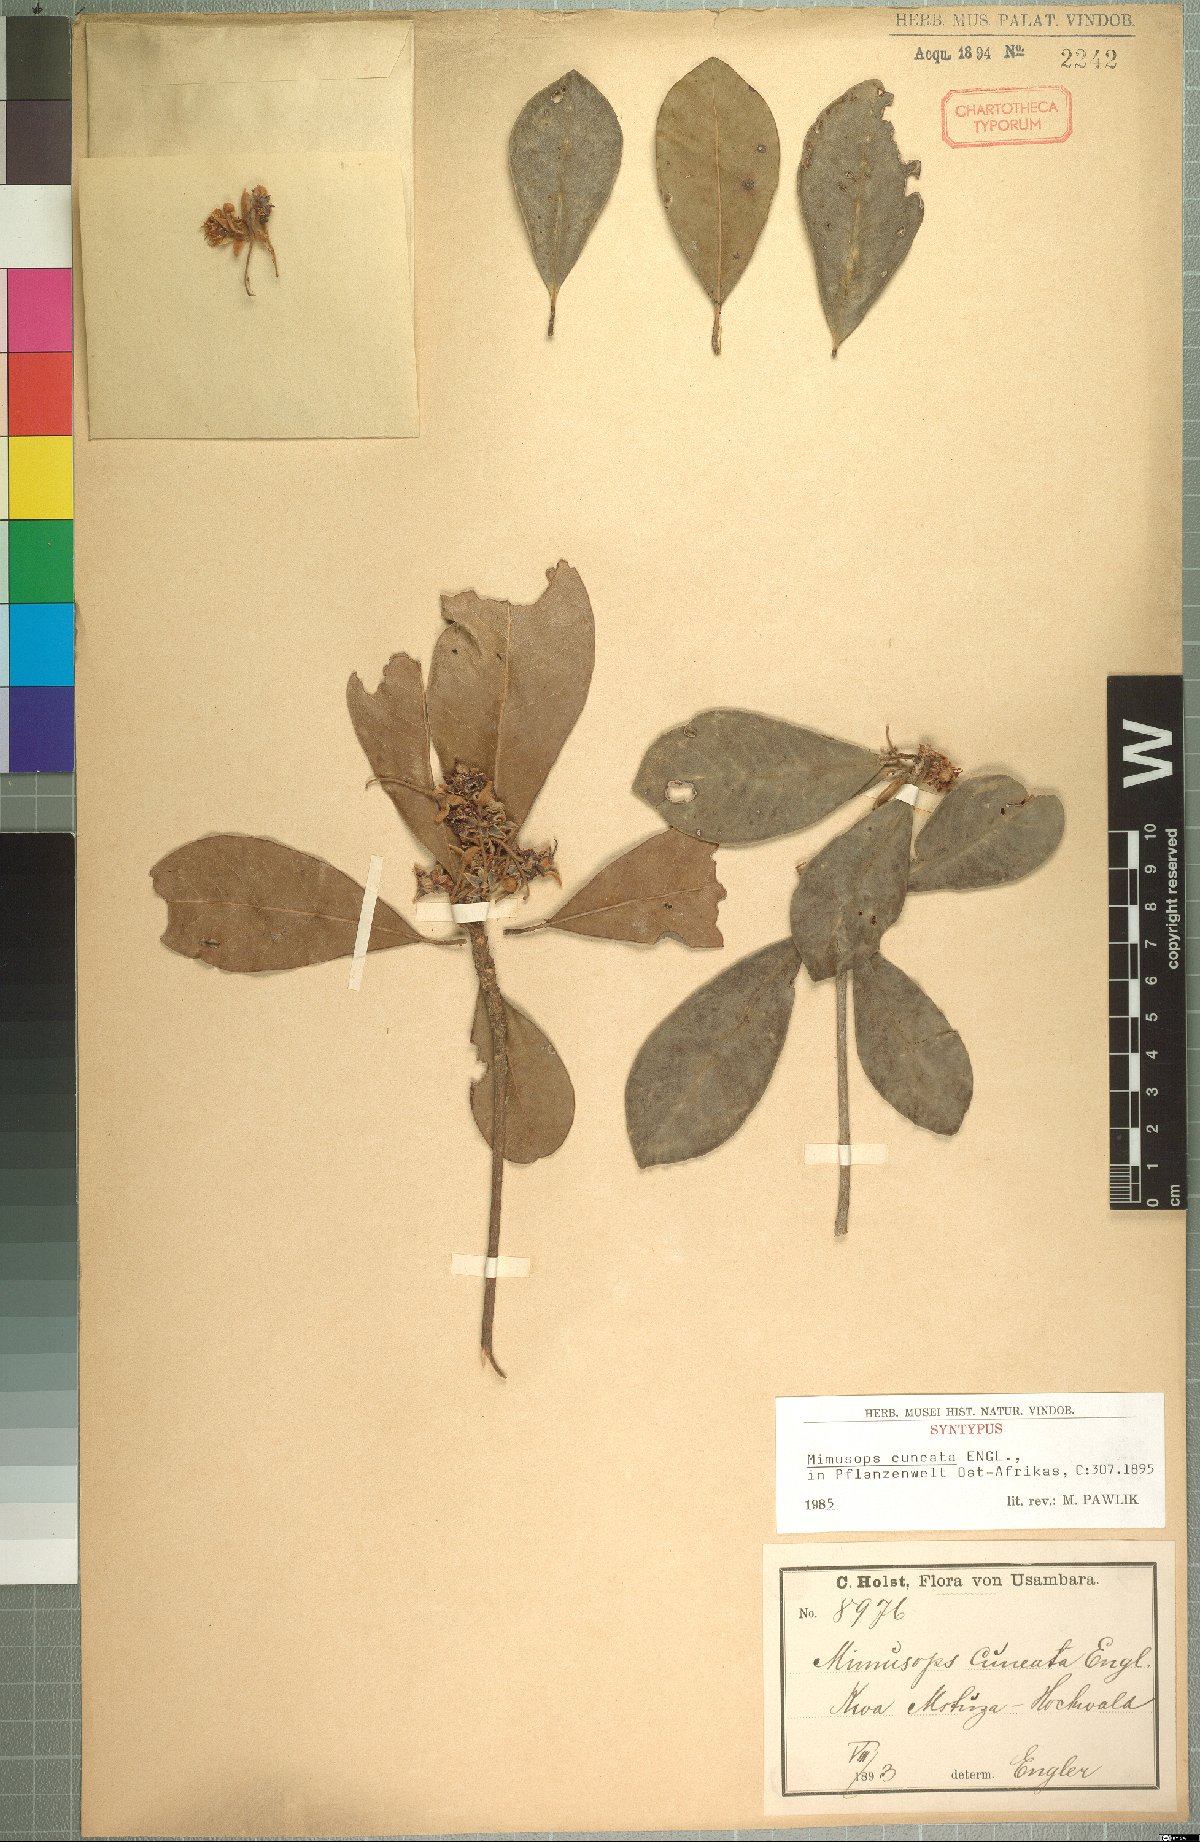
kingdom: Plantae
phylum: Tracheophyta
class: Magnoliopsida
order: Ericales
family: Sapotaceae
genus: Vitellariopsis
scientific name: Vitellariopsis cuneata
